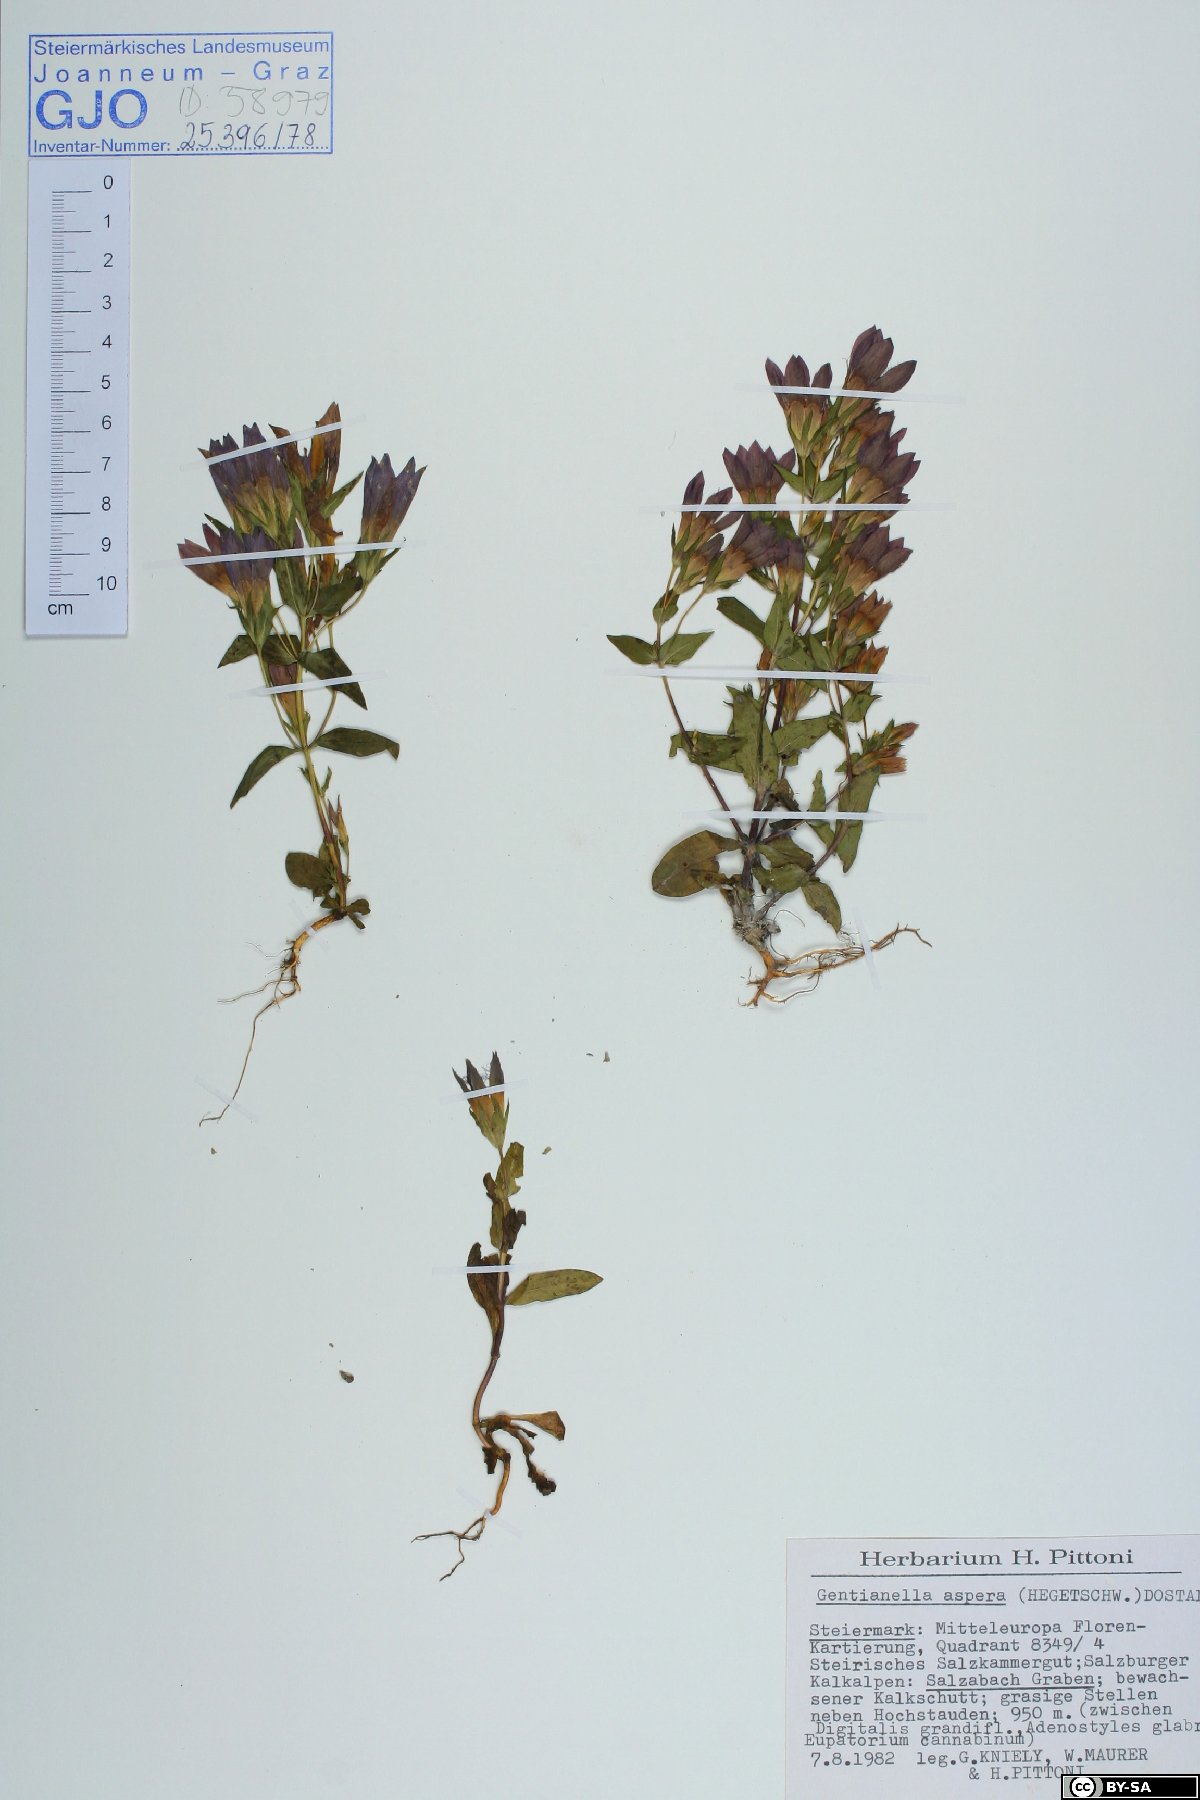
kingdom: Plantae
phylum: Tracheophyta
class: Magnoliopsida
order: Gentianales
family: Gentianaceae
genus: Gentianella
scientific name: Gentianella obtusifolia
